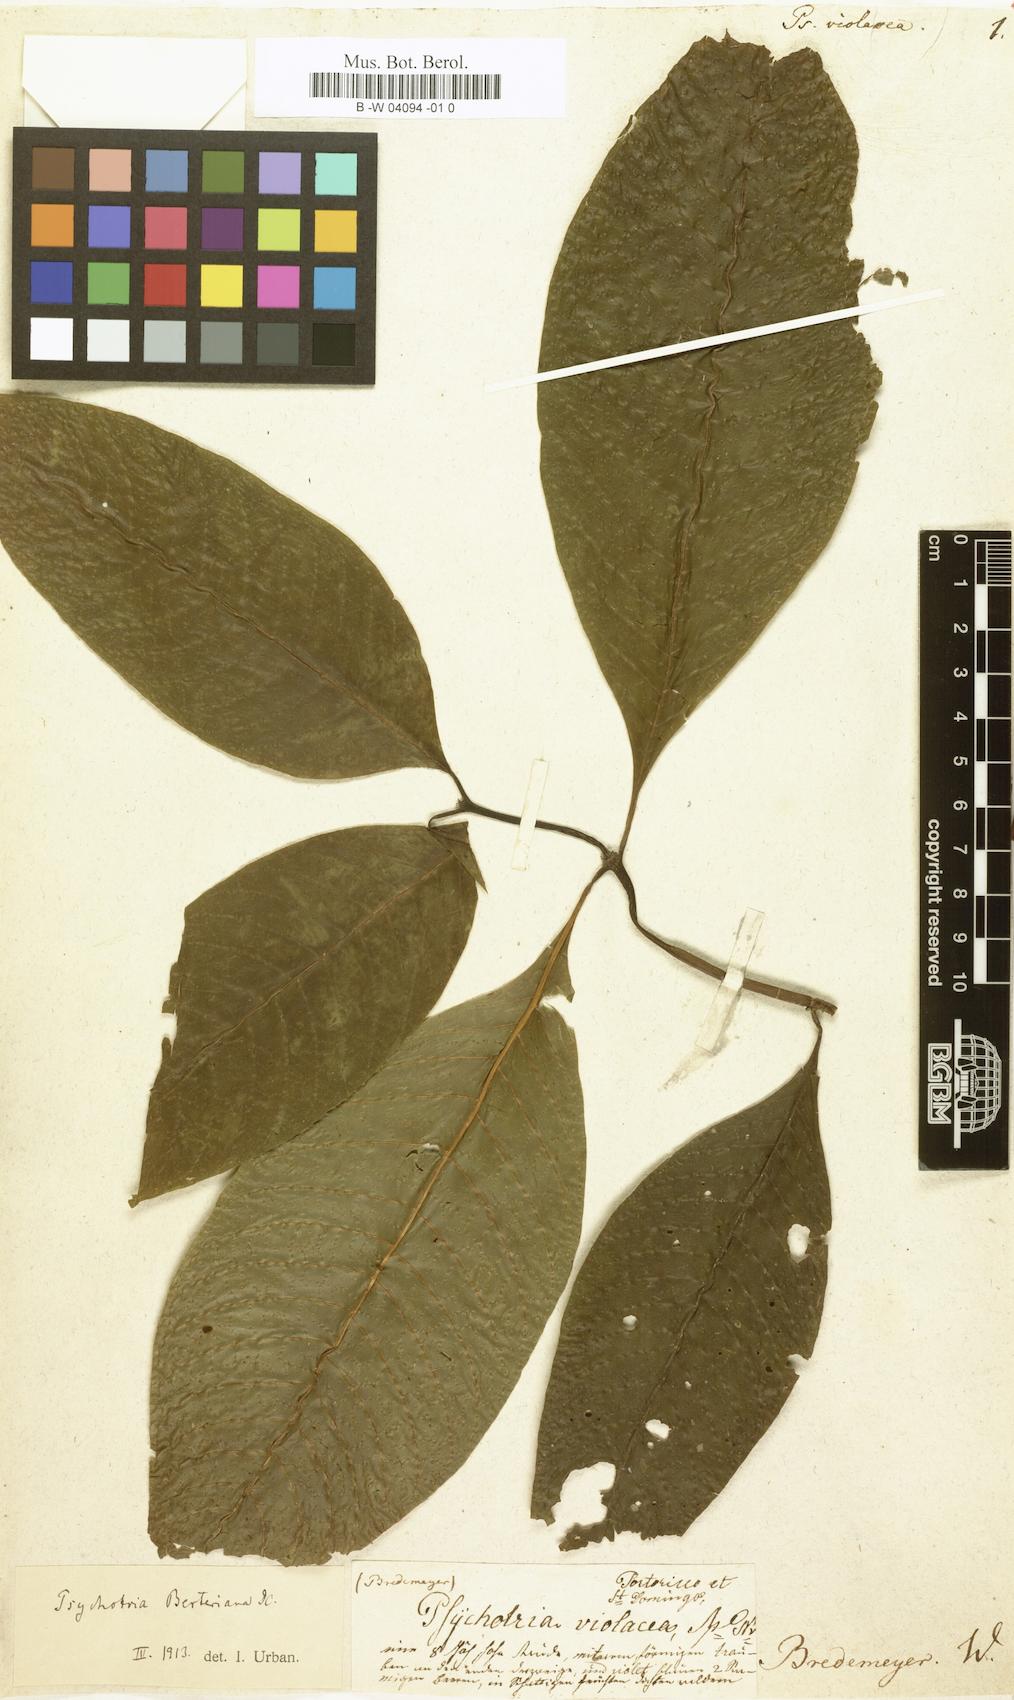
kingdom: Plantae
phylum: Tracheophyta
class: Magnoliopsida
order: Gentianales
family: Rubiaceae
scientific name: Rubiaceae
